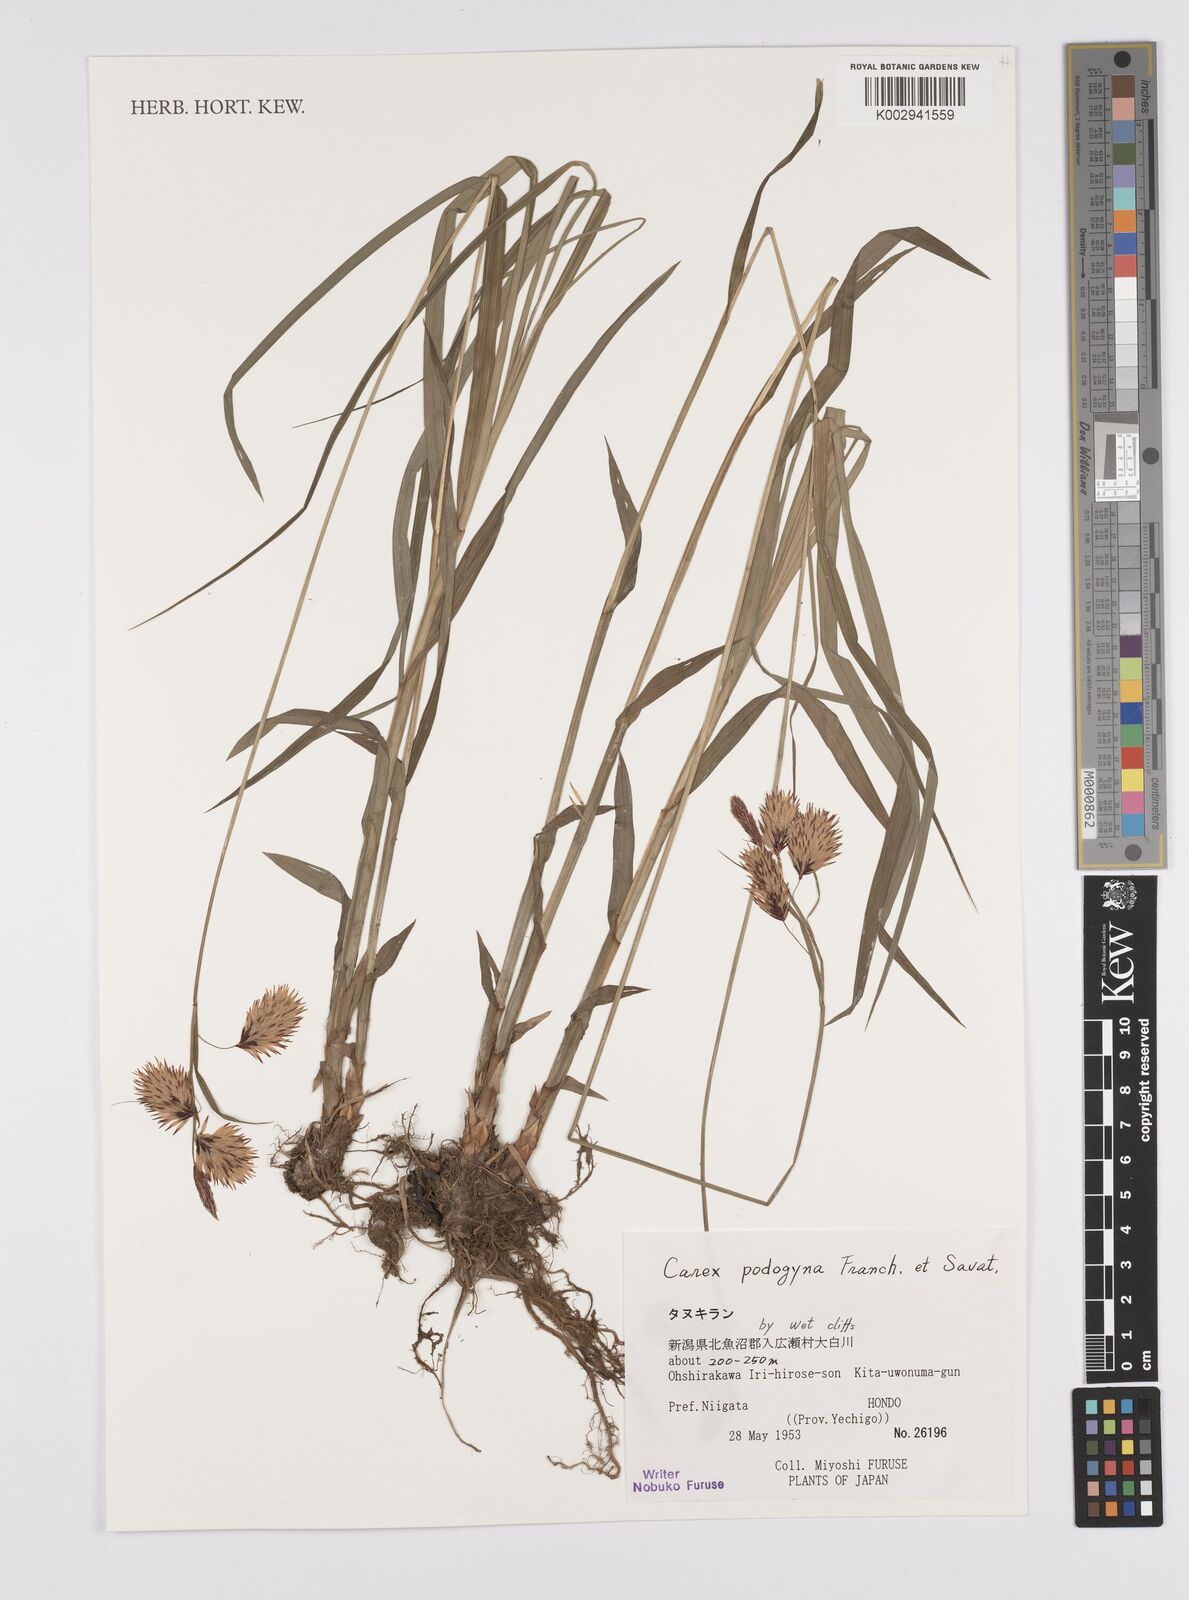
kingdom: Plantae
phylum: Tracheophyta
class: Liliopsida
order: Poales
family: Cyperaceae
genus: Carex
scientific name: Carex podogyna
